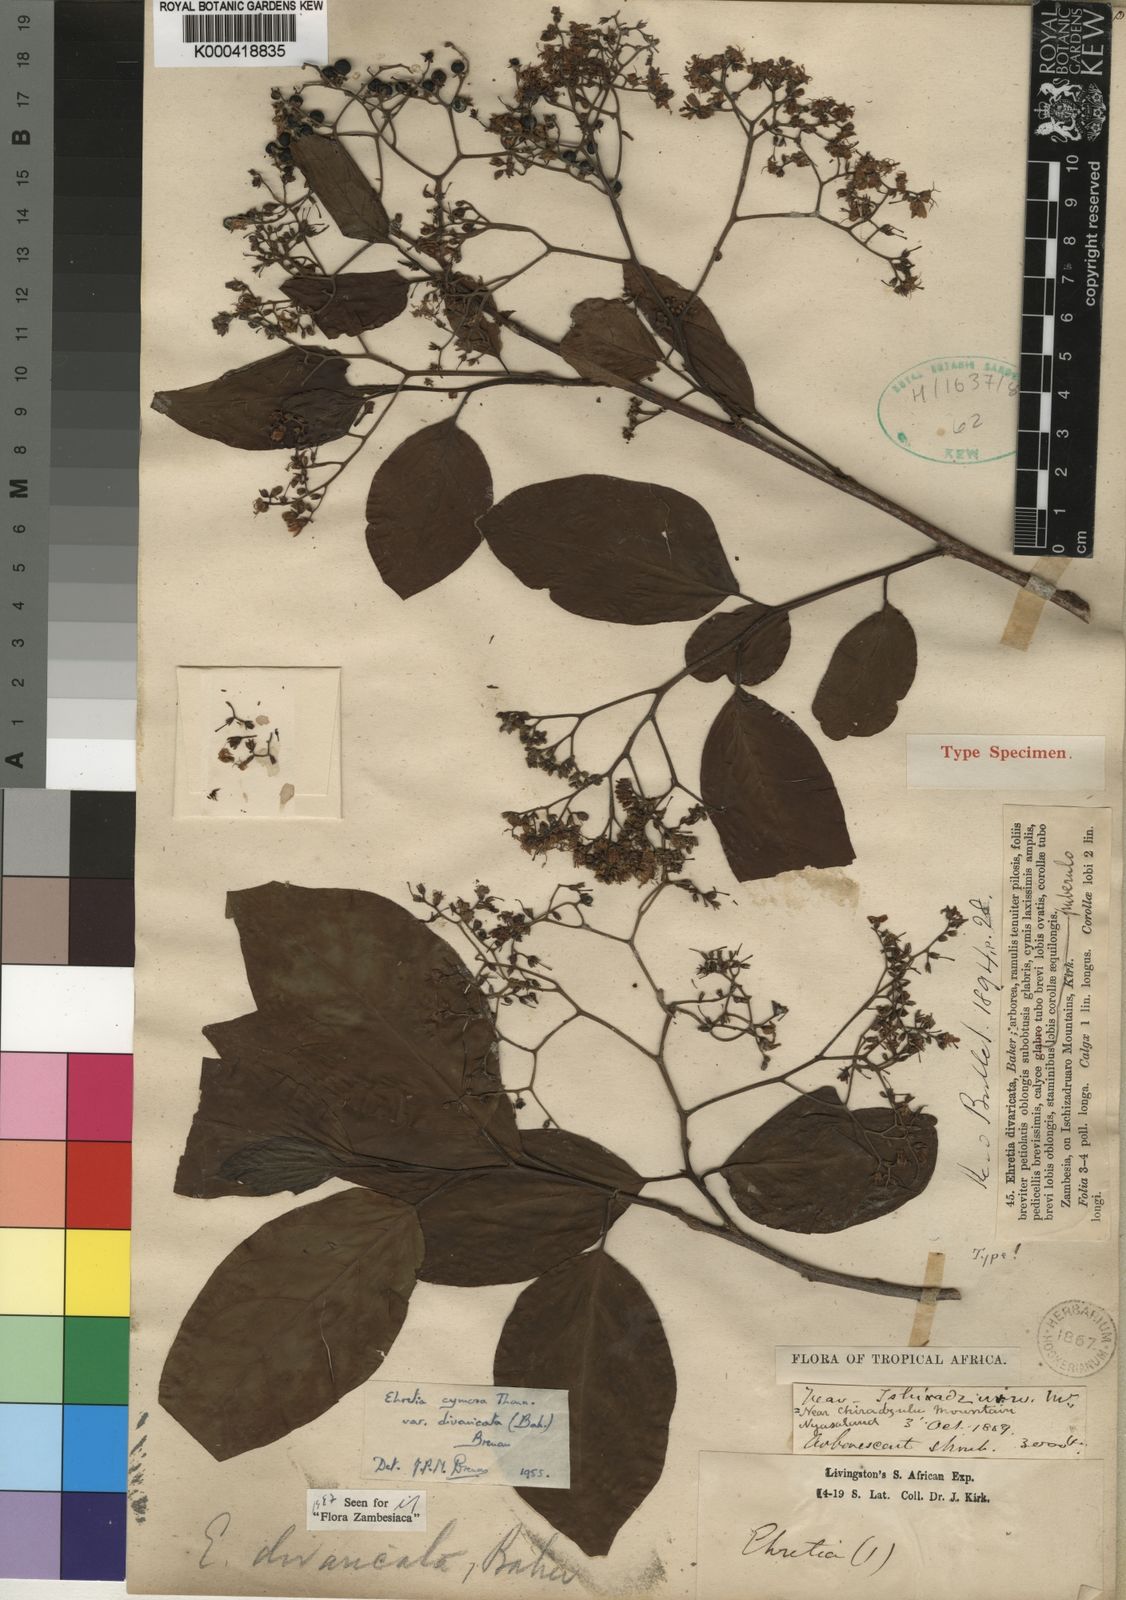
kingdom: Plantae
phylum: Tracheophyta
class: Magnoliopsida
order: Boraginales
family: Ehretiaceae
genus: Ehretia
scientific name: Ehretia cymosa
